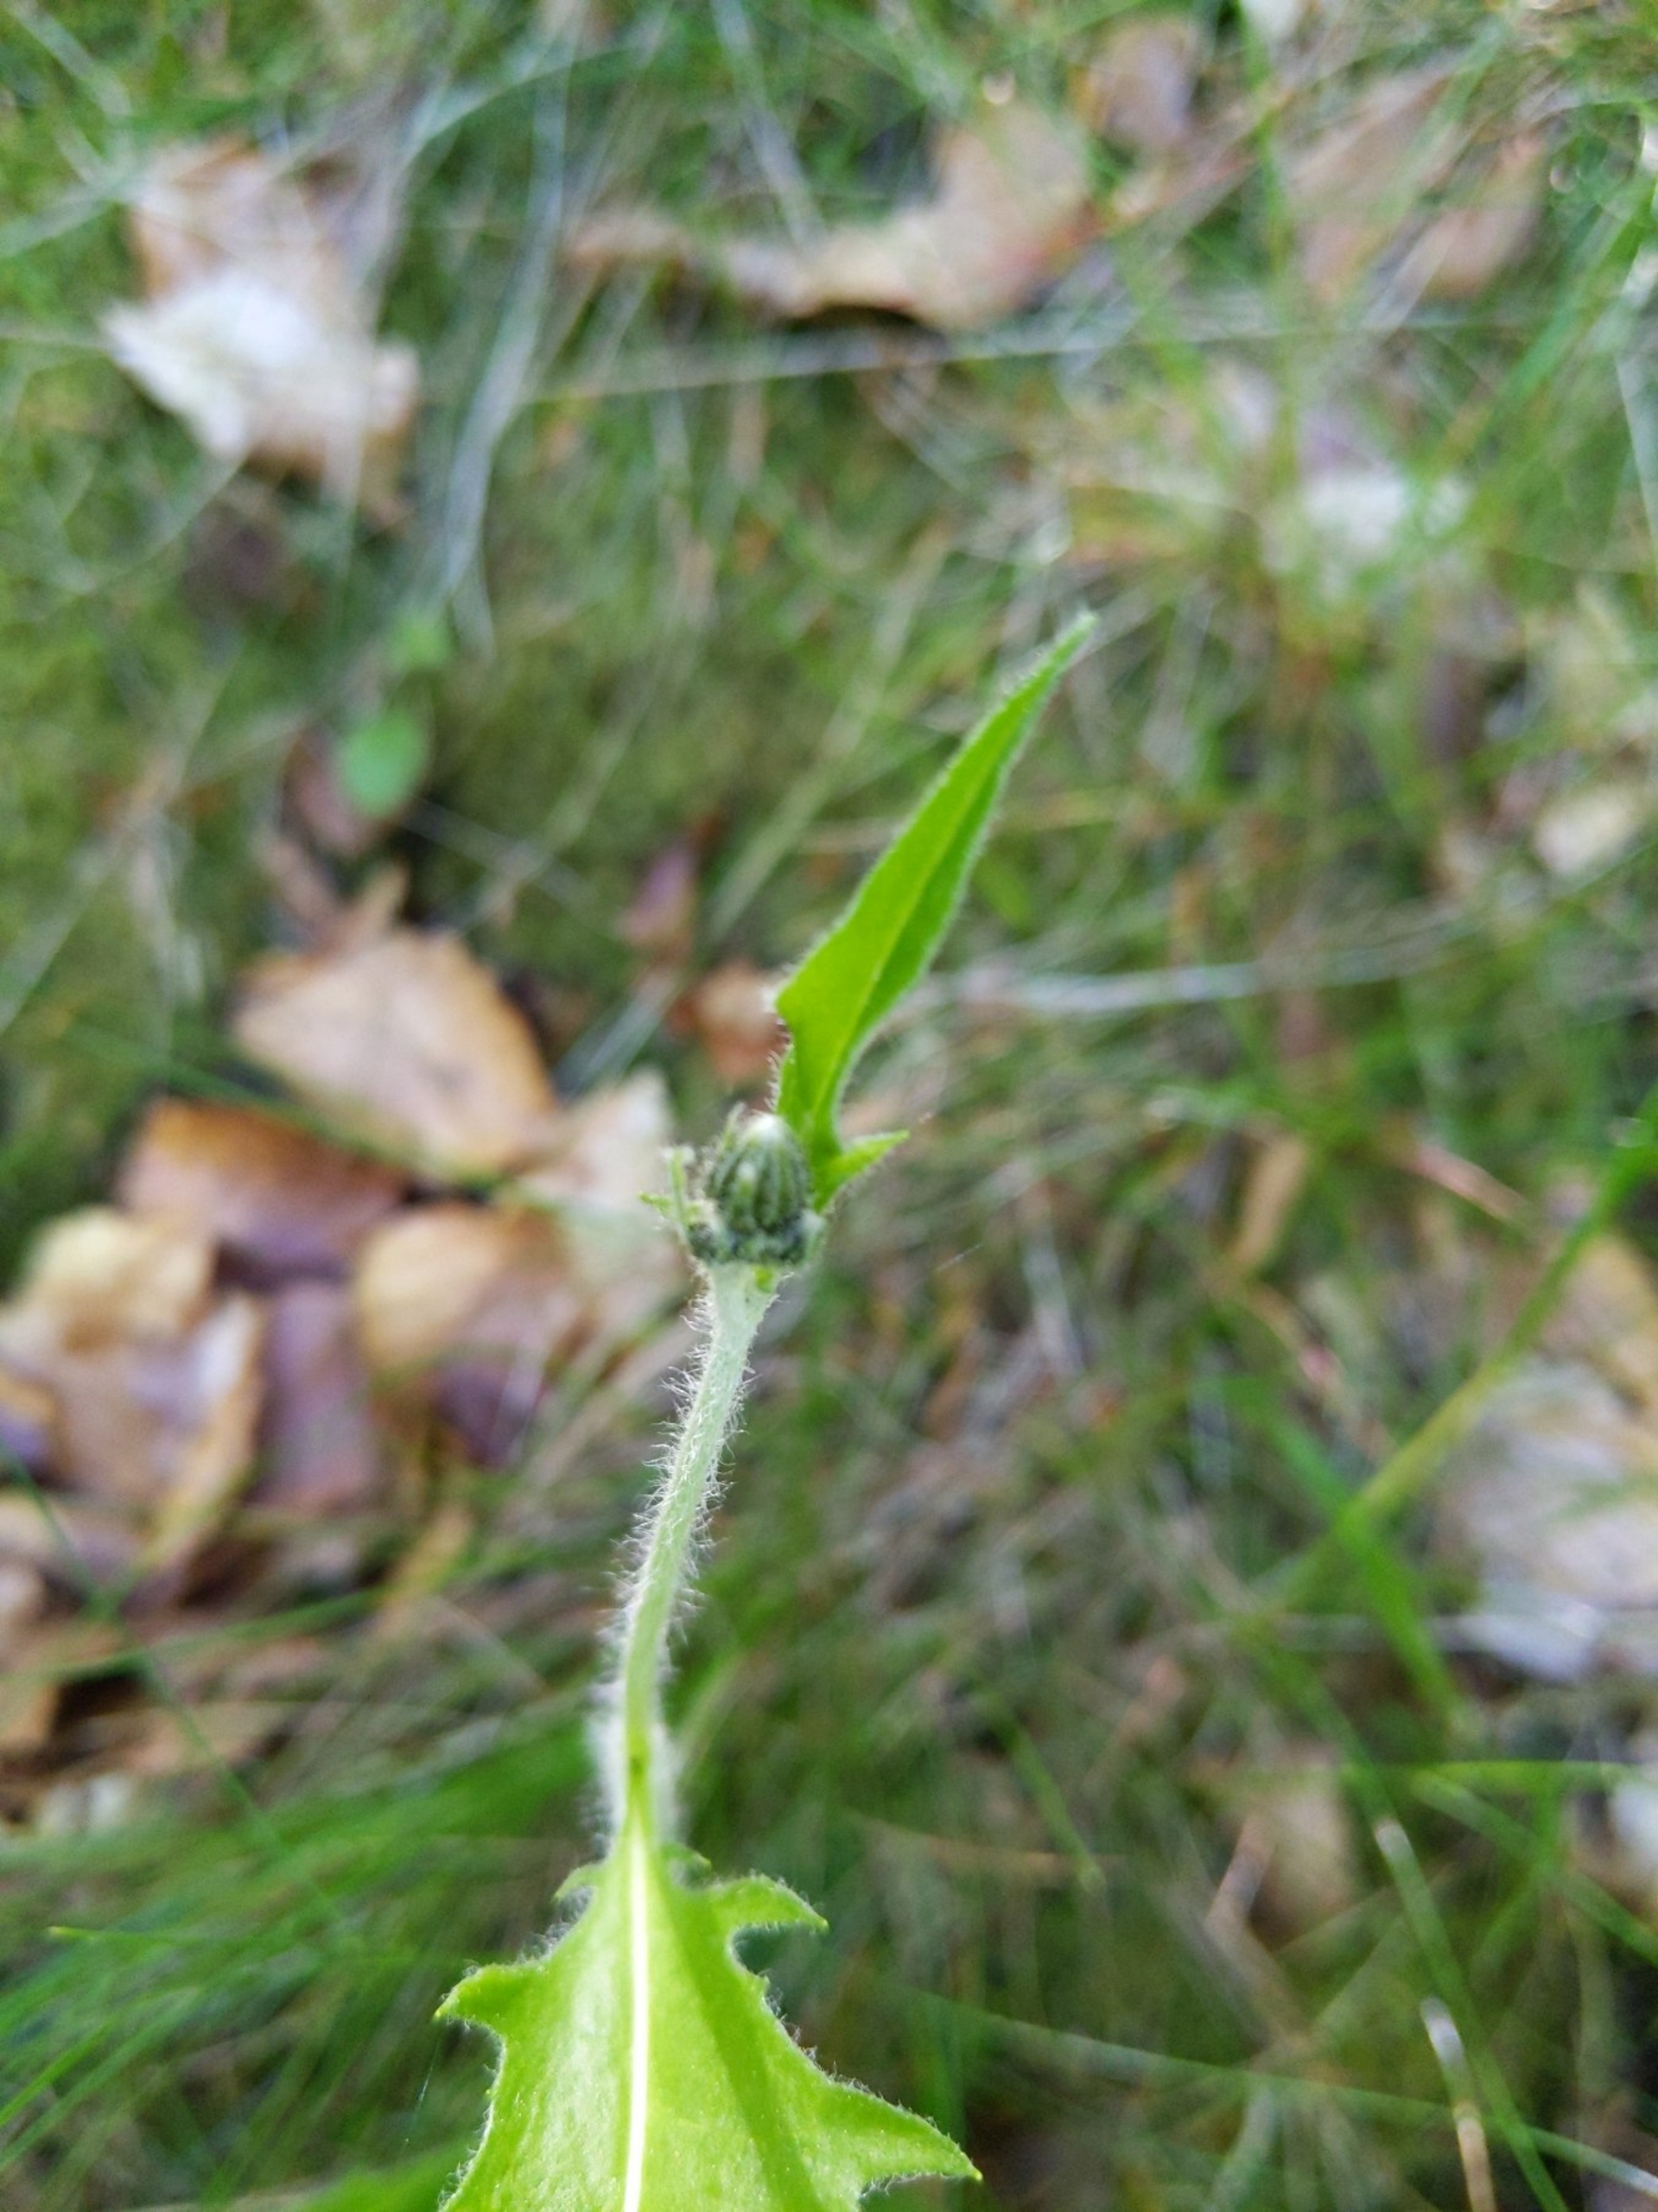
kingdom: Plantae
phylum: Tracheophyta
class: Magnoliopsida
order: Asterales
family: Asteraceae
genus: Hieracium
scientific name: Hieracium
